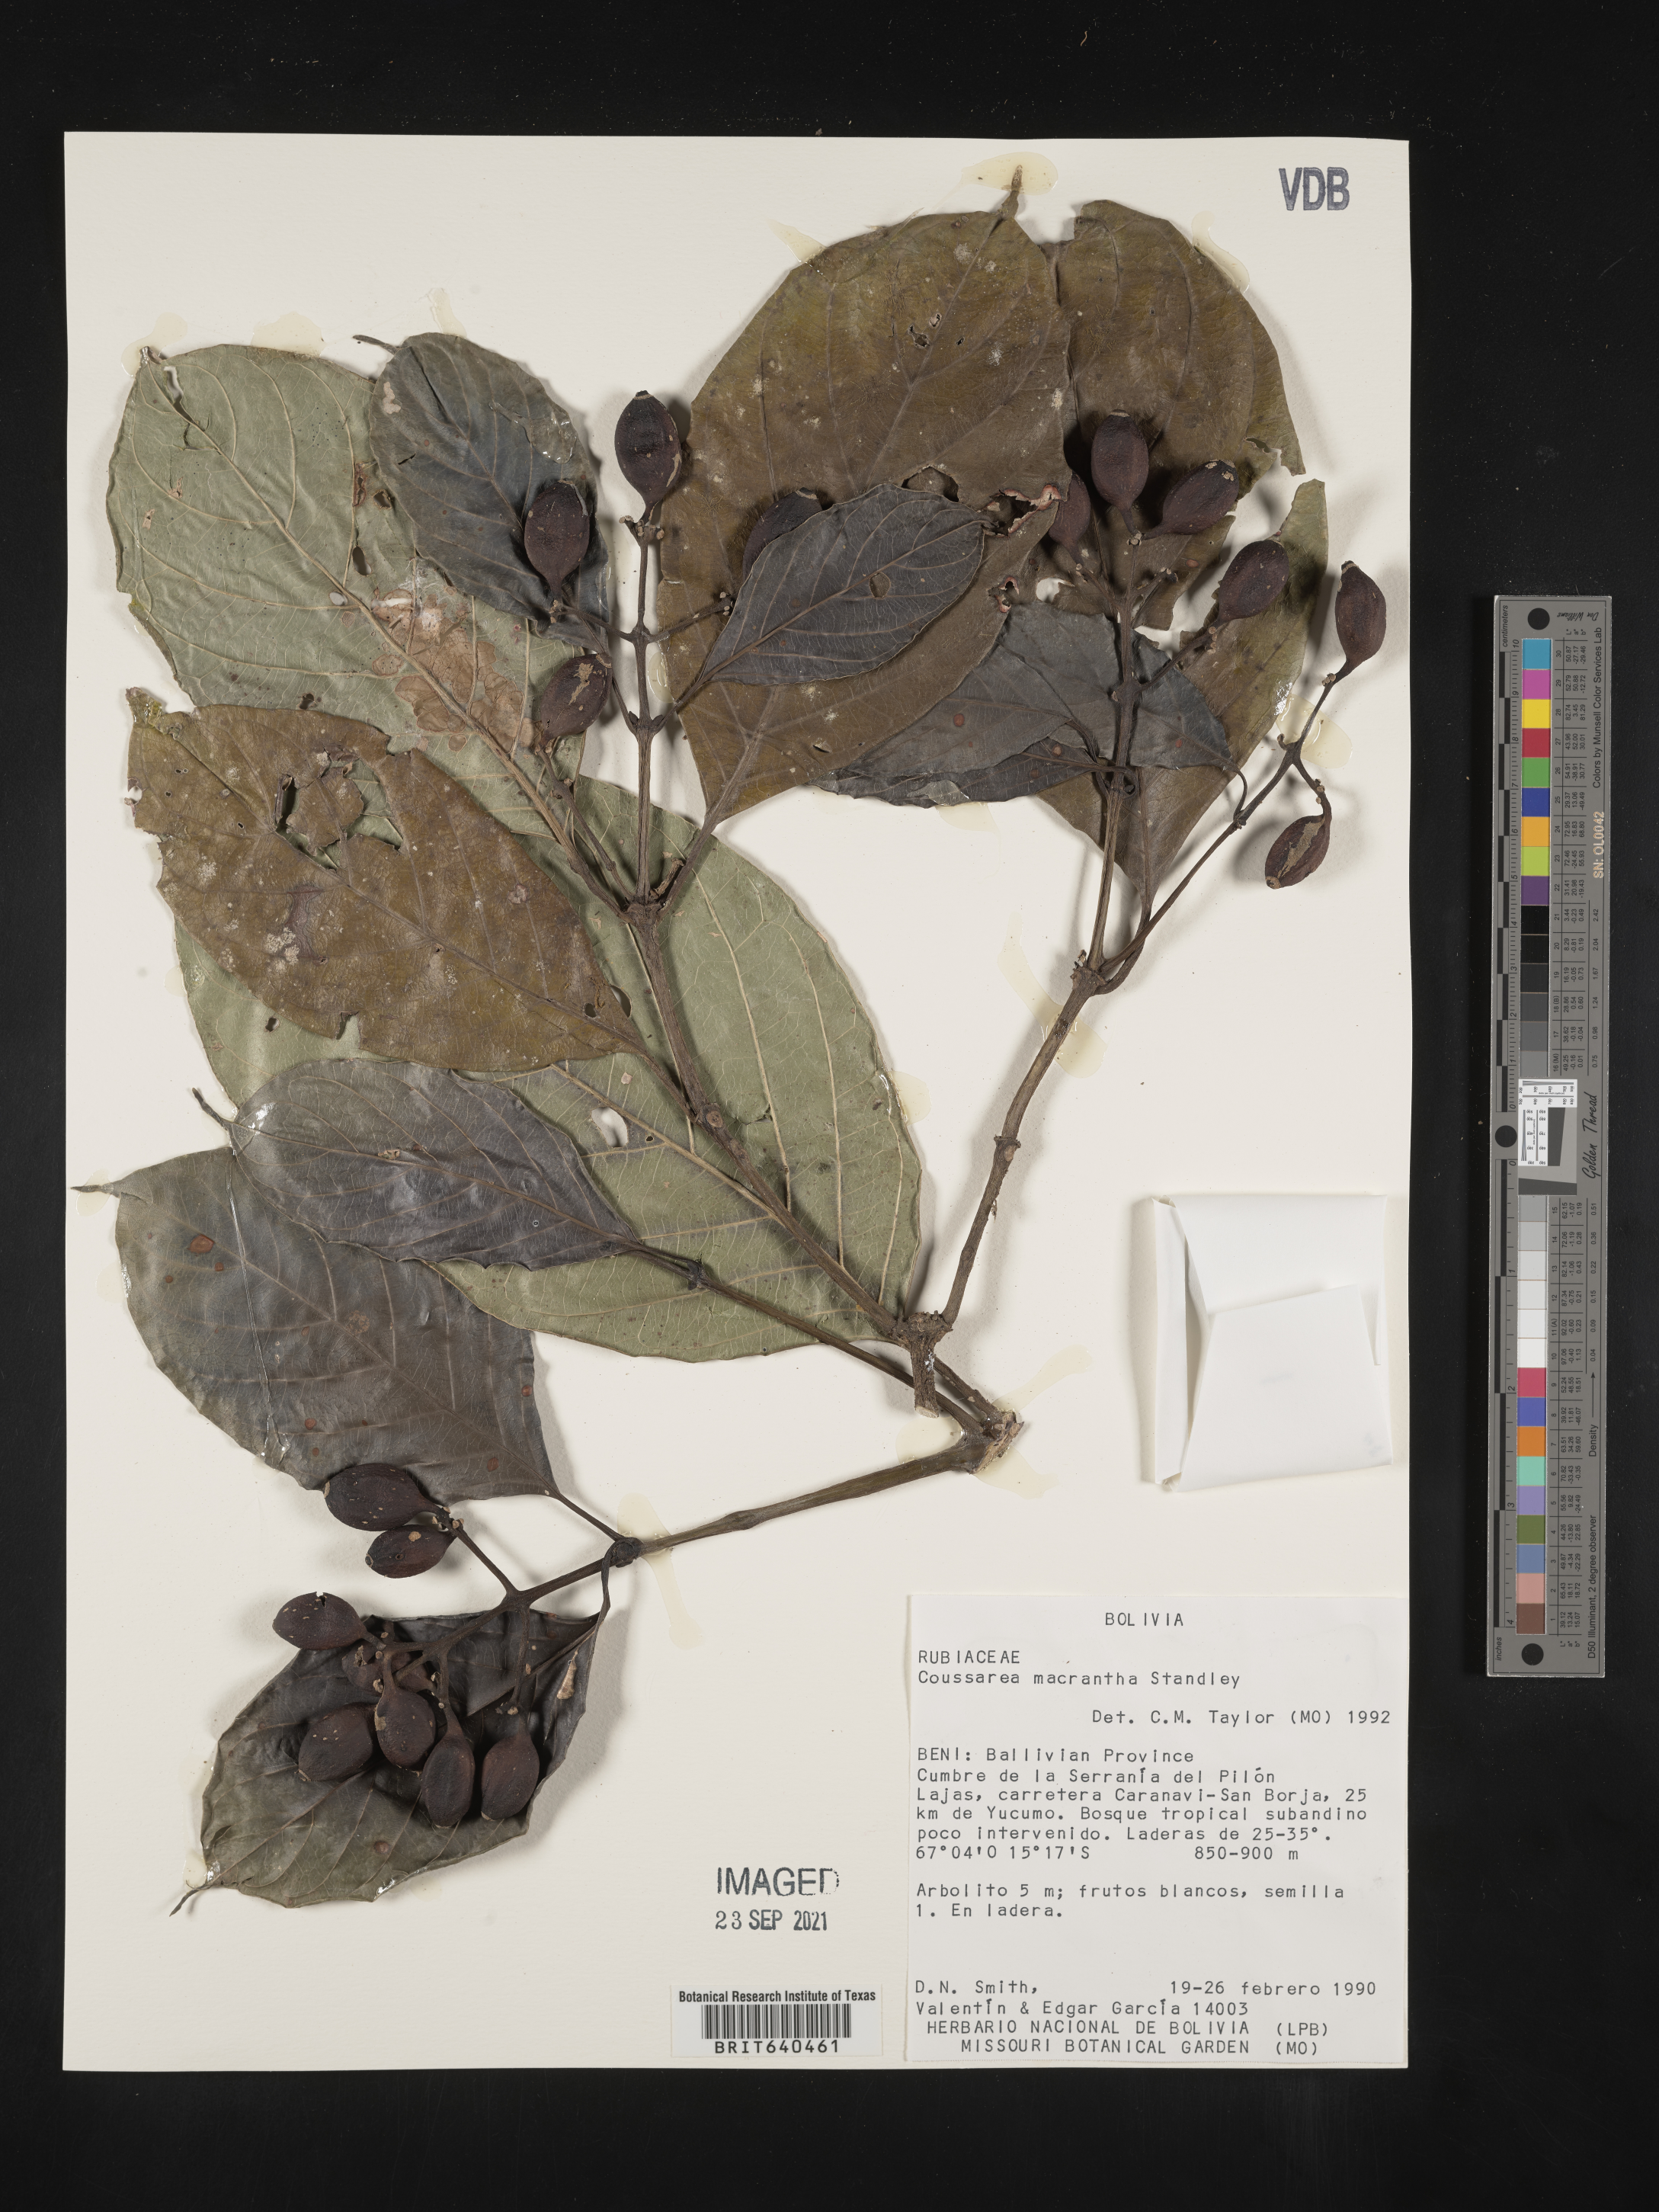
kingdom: Plantae
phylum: Tracheophyta
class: Magnoliopsida
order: Gentianales
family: Rubiaceae
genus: Coussarea
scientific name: Coussarea
